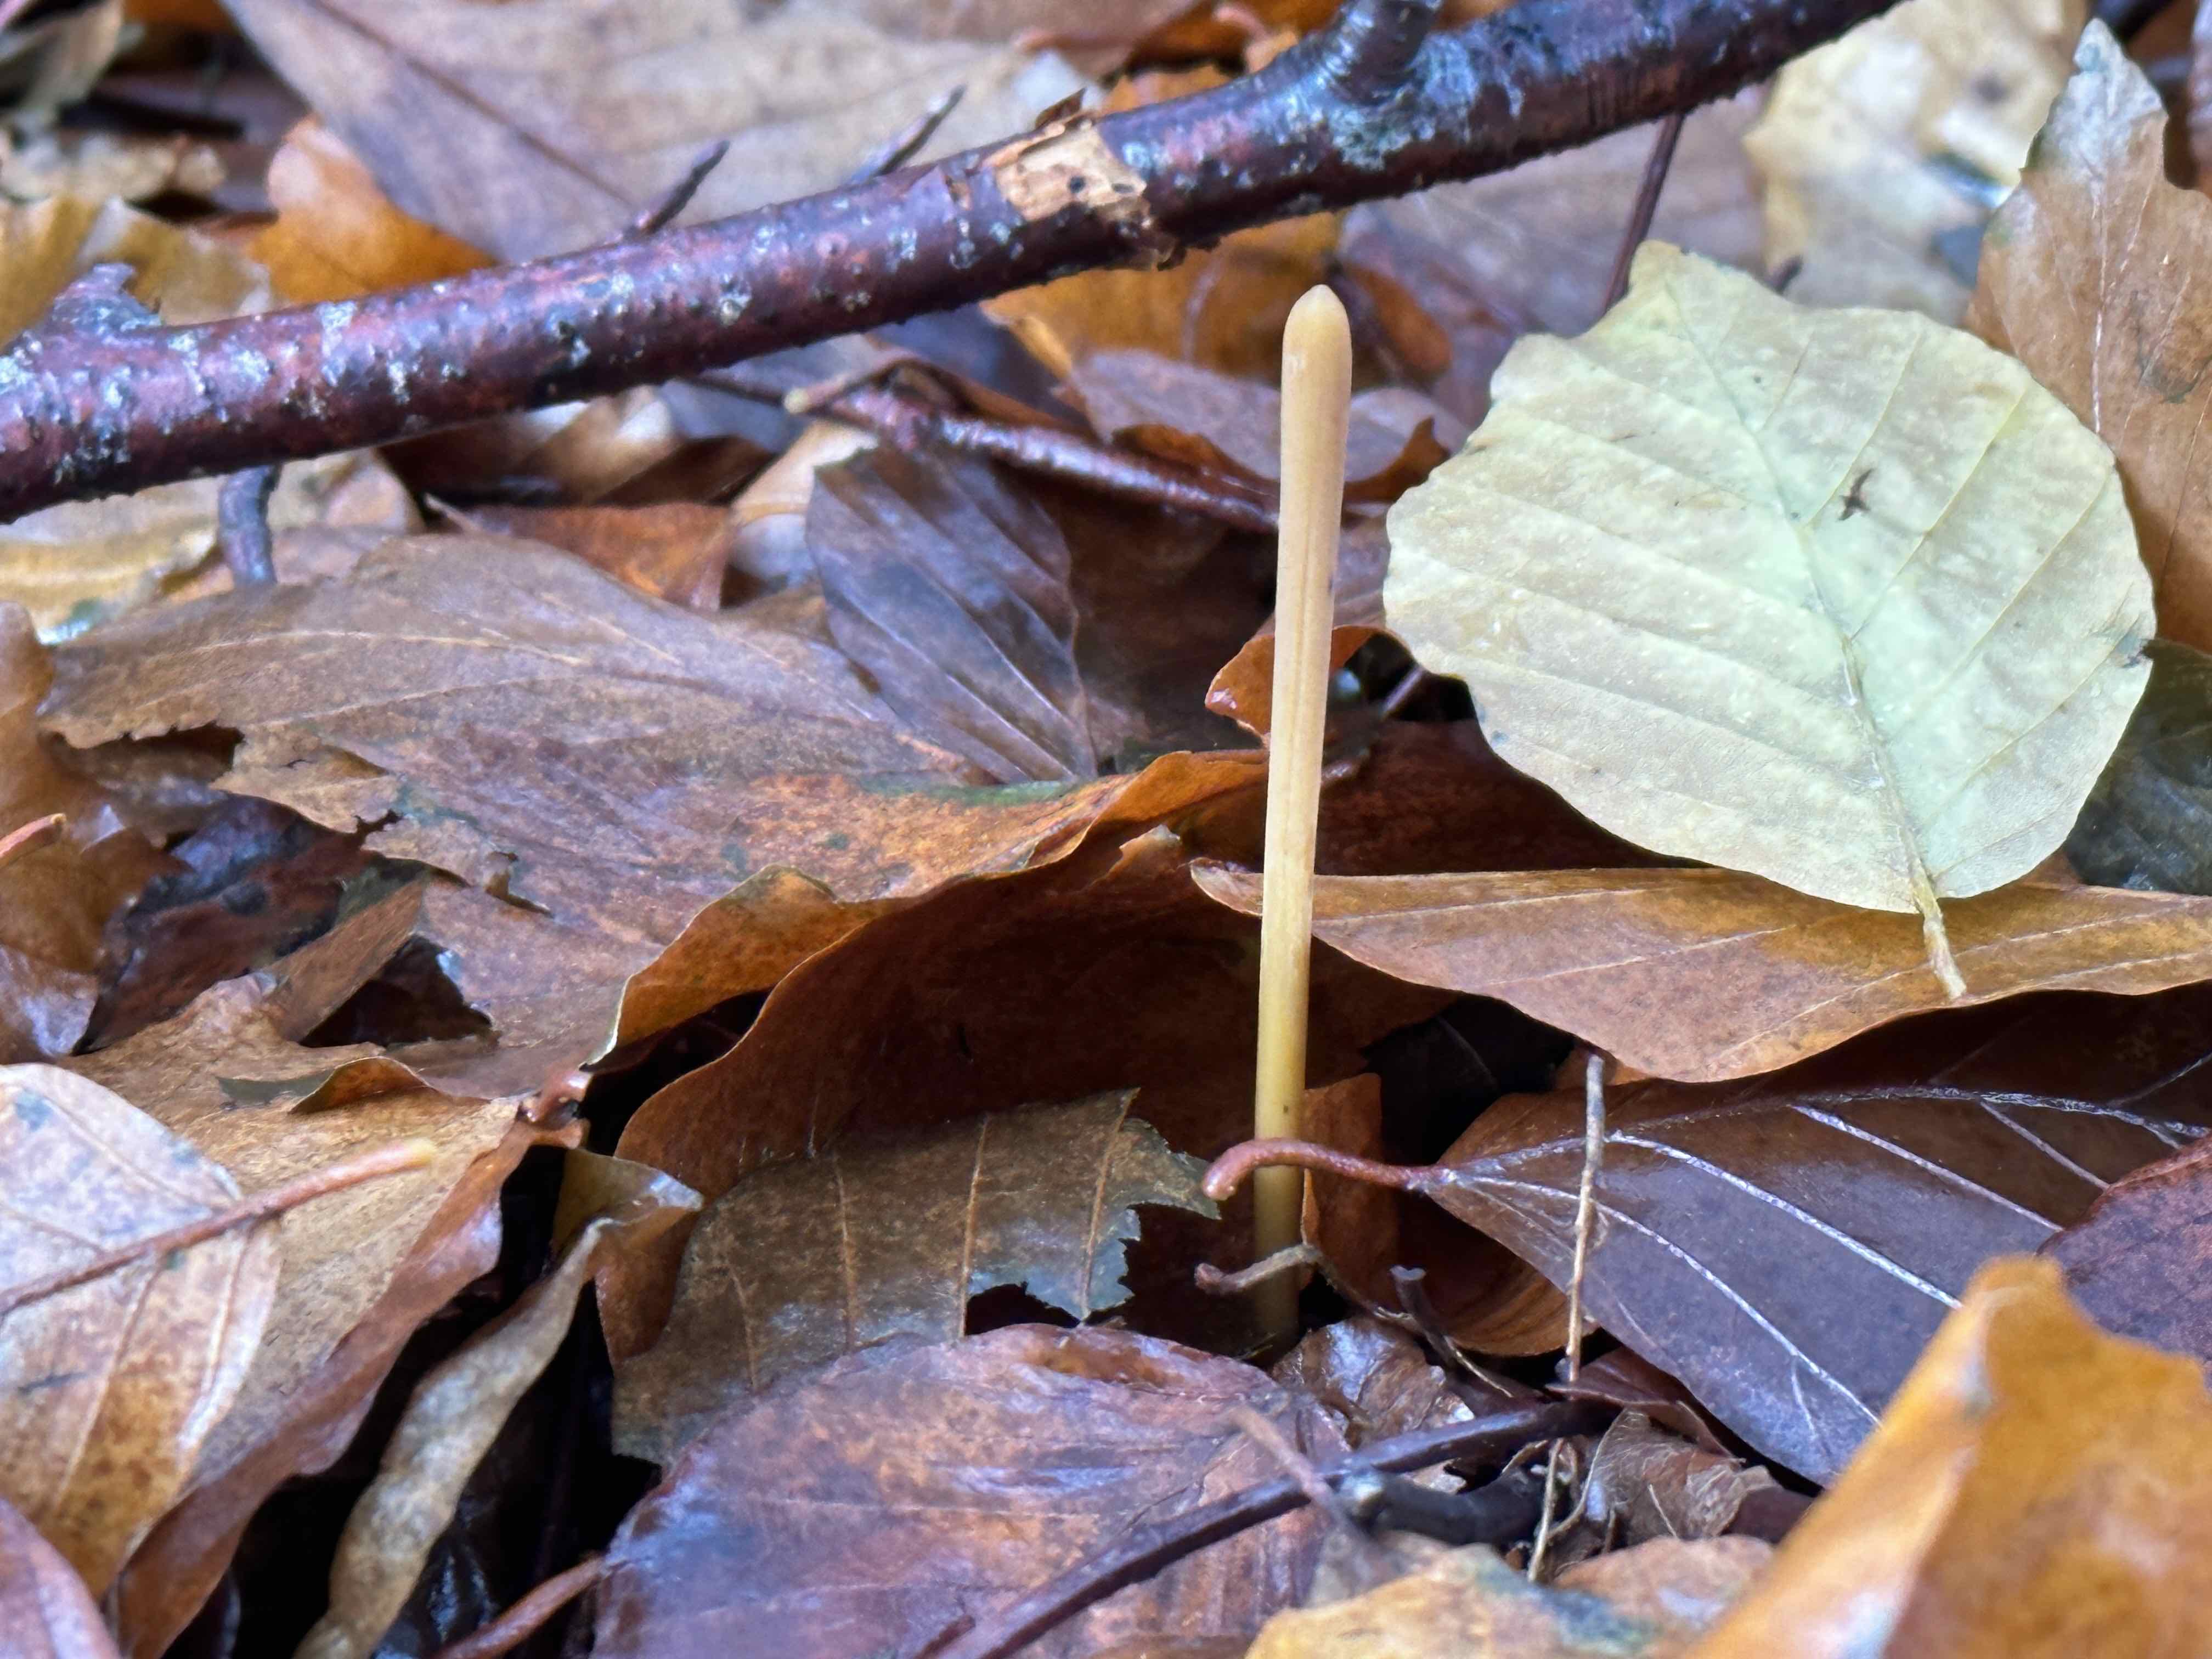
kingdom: Fungi
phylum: Basidiomycota
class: Agaricomycetes
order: Agaricales
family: Typhulaceae
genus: Typhula
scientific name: Typhula fistulosa
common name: pibet rørkølle
